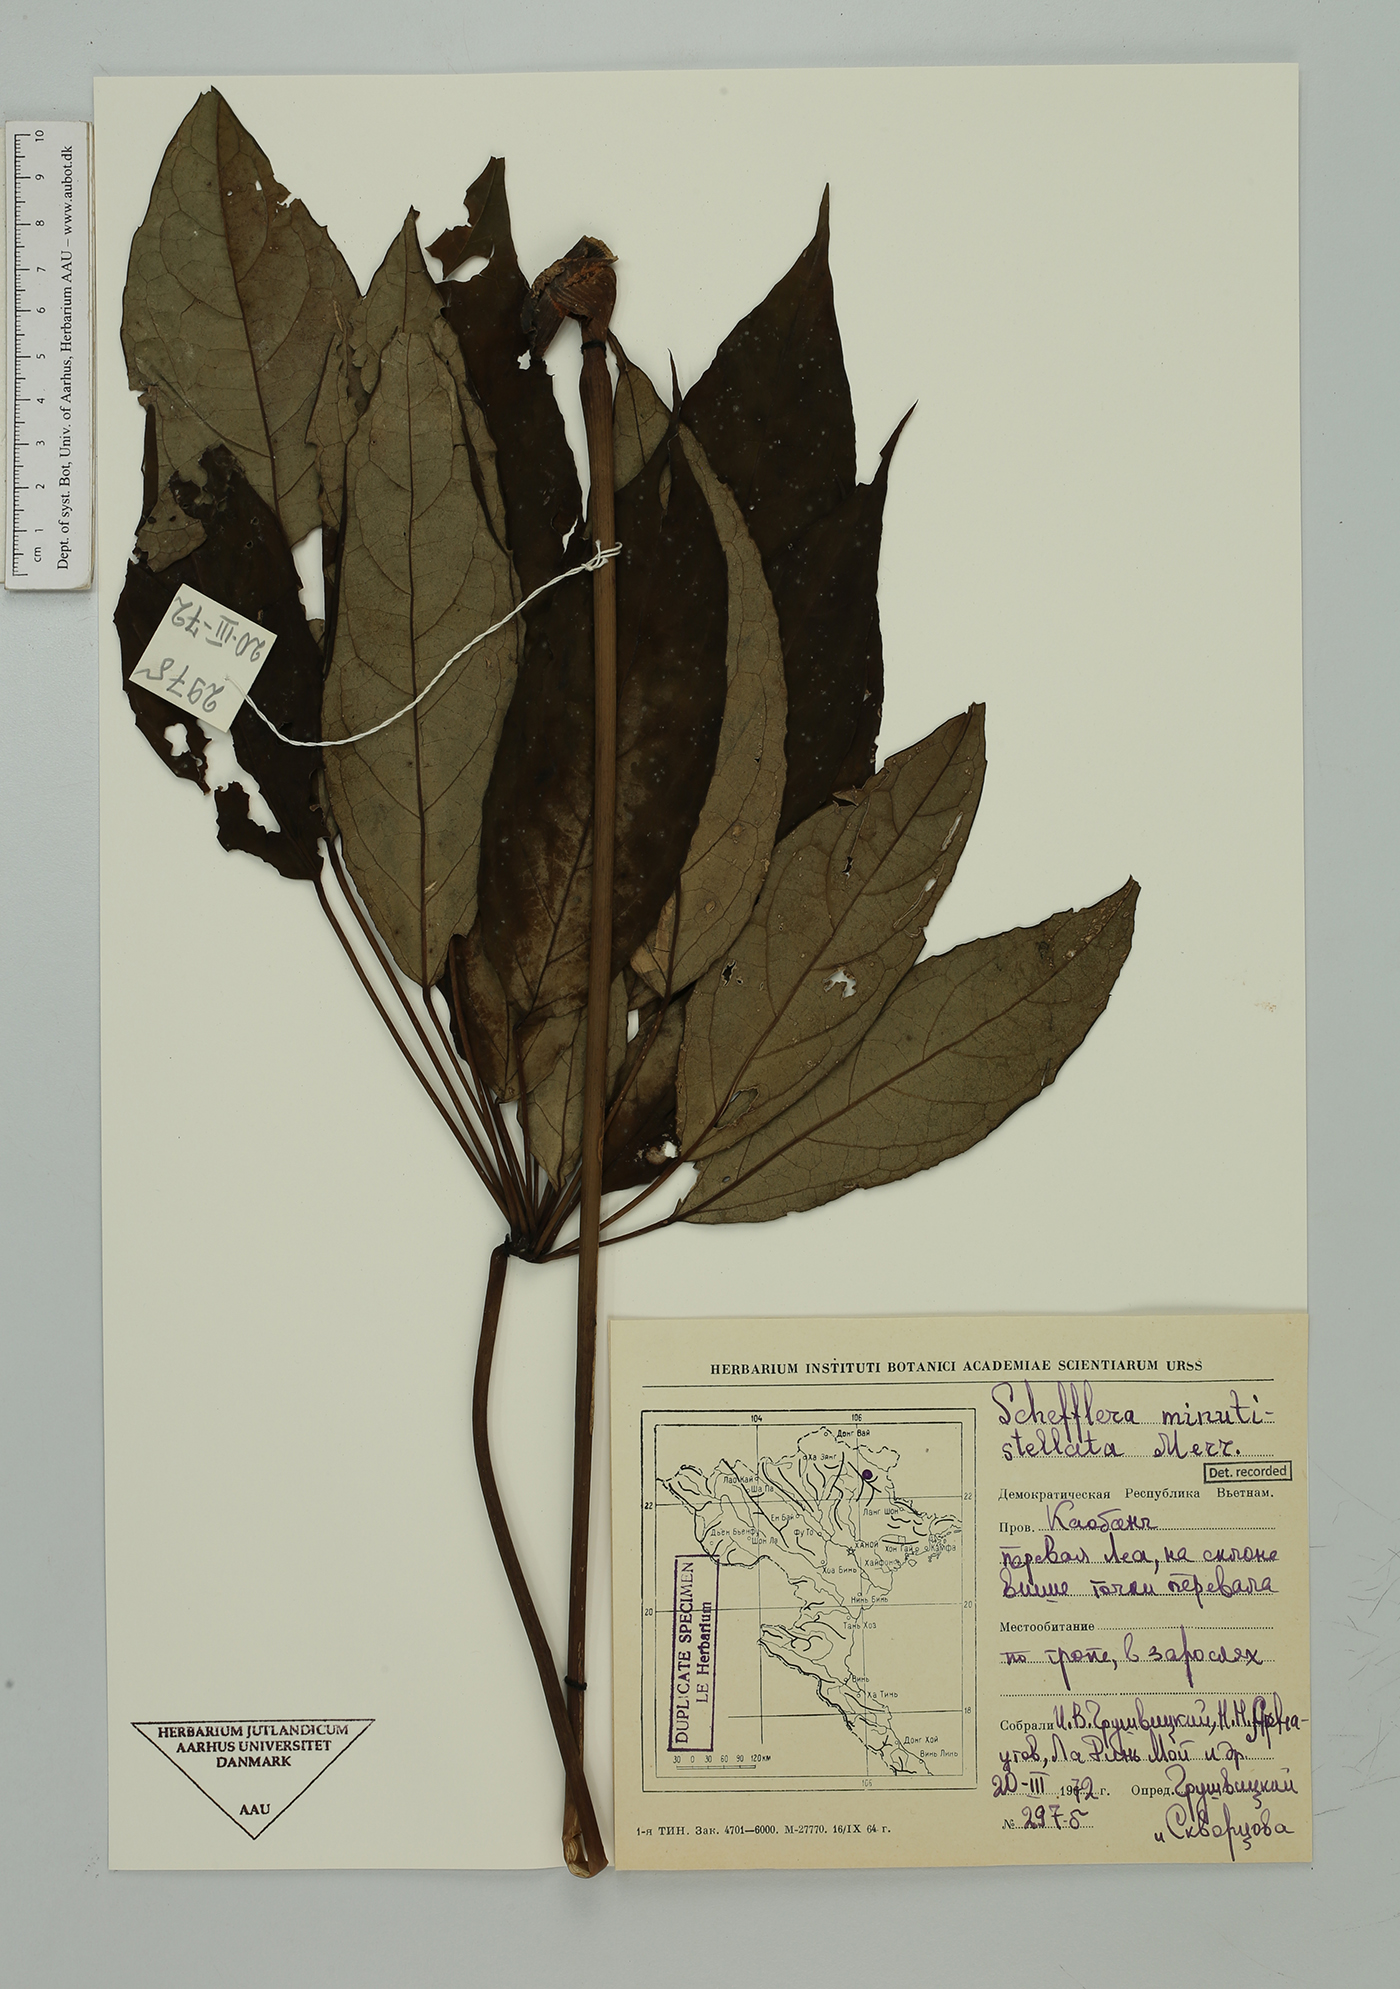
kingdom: Plantae
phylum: Tracheophyta
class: Magnoliopsida
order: Apiales
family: Araliaceae
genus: Heptapleurum
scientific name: Heptapleurum minutistellatum
